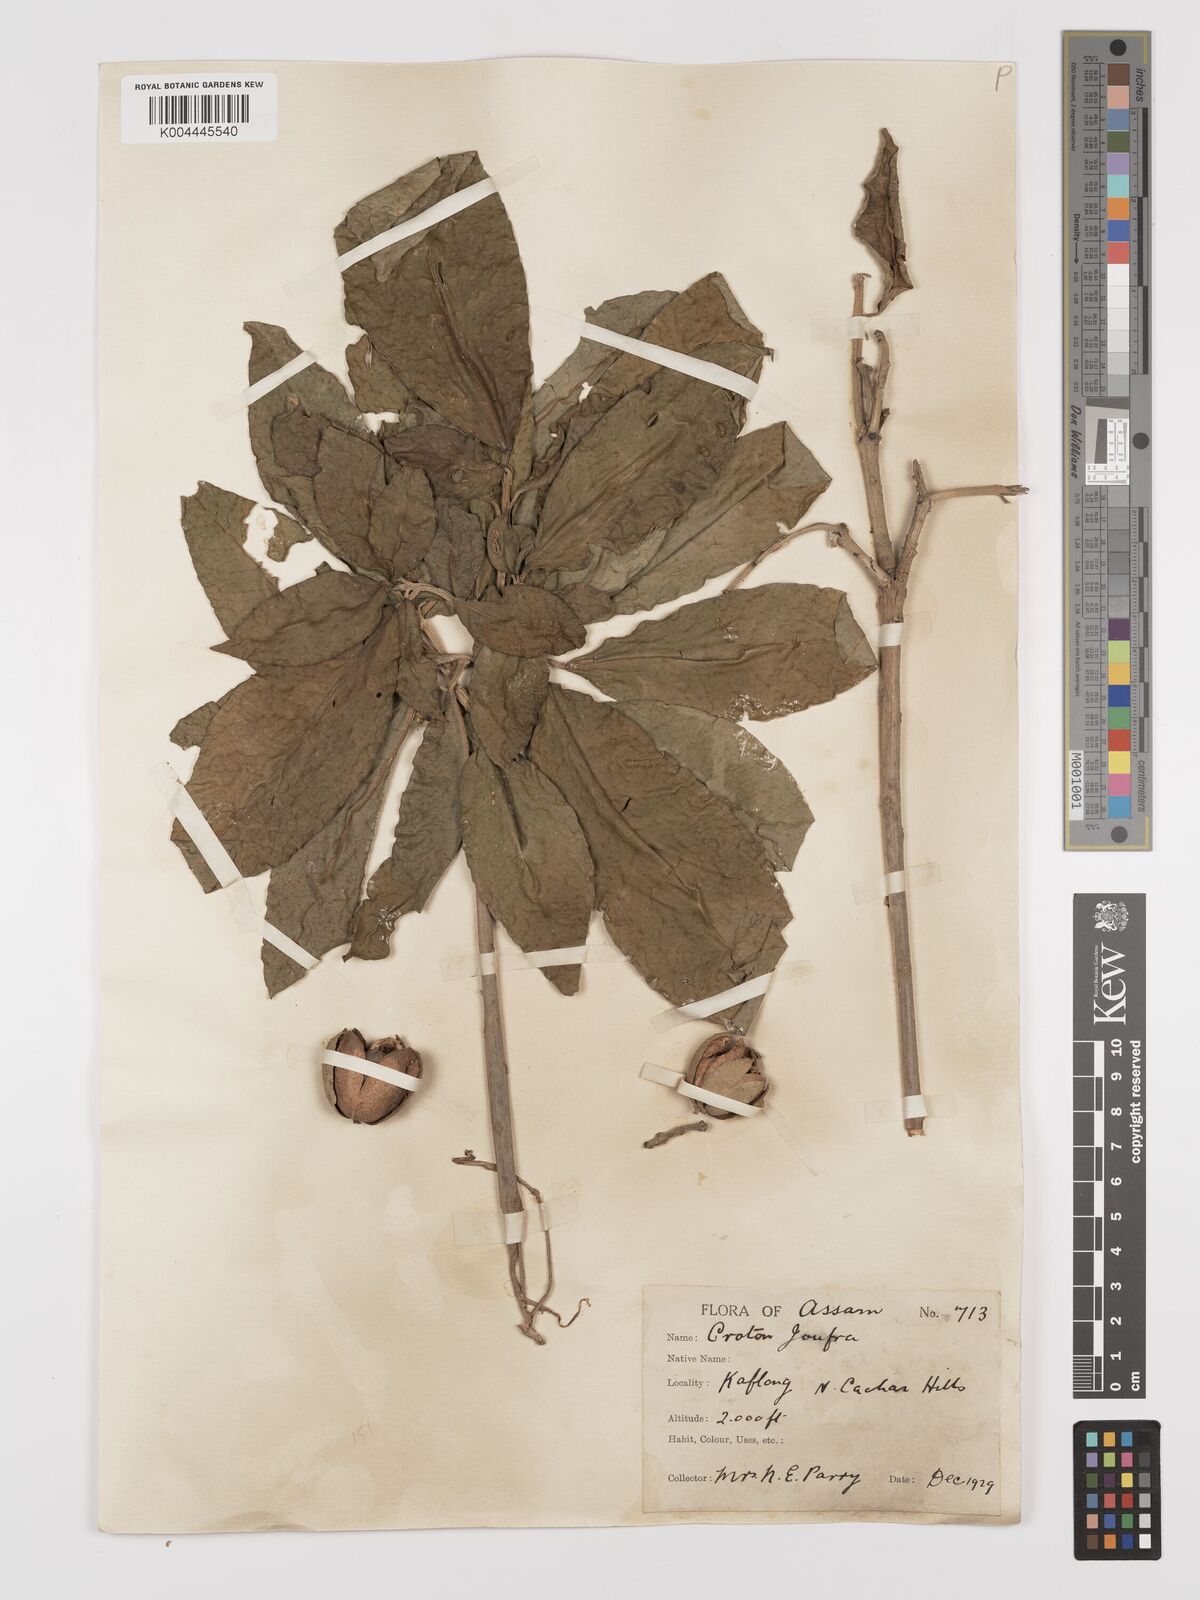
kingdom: Plantae
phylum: Tracheophyta
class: Magnoliopsida
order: Malpighiales
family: Euphorbiaceae
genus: Croton
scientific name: Croton joufra
